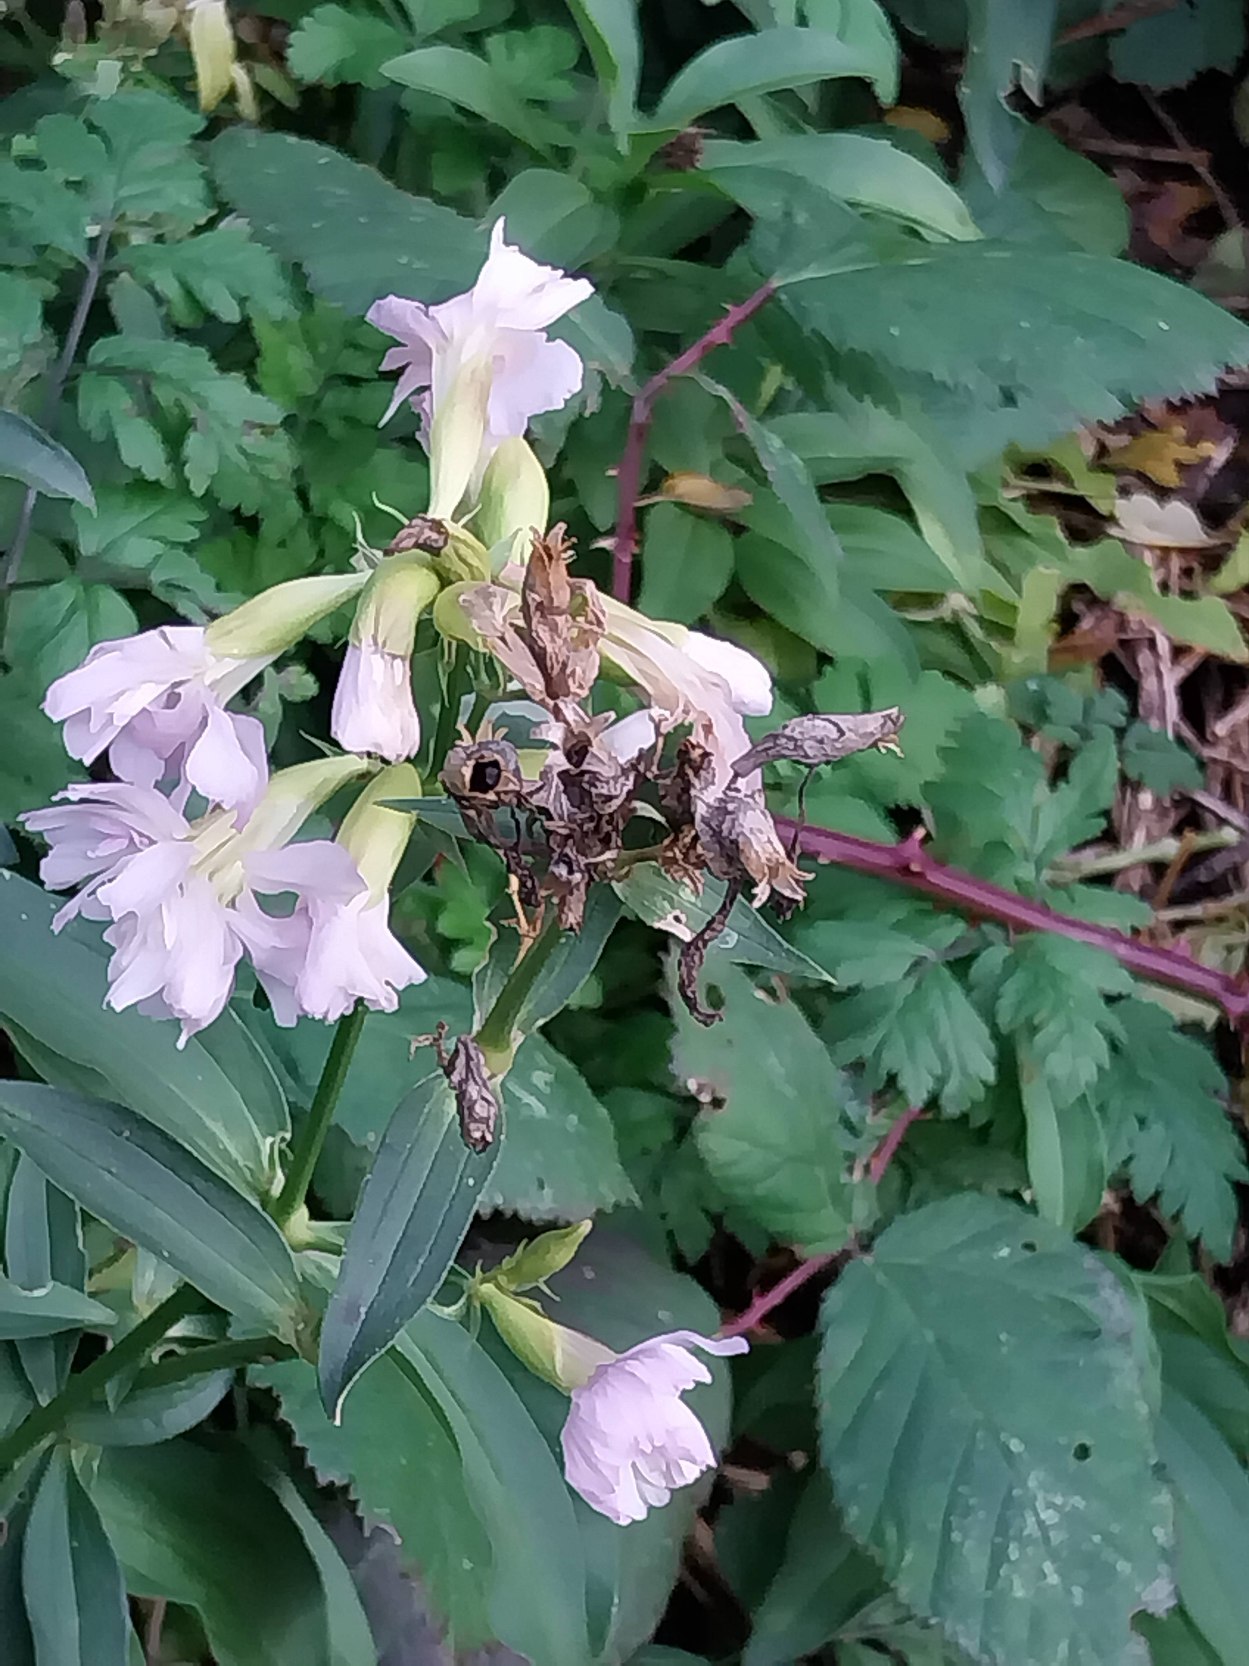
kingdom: Plantae
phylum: Tracheophyta
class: Magnoliopsida
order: Caryophyllales
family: Caryophyllaceae
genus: Saponaria
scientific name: Saponaria officinalis
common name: Sæbeurt
